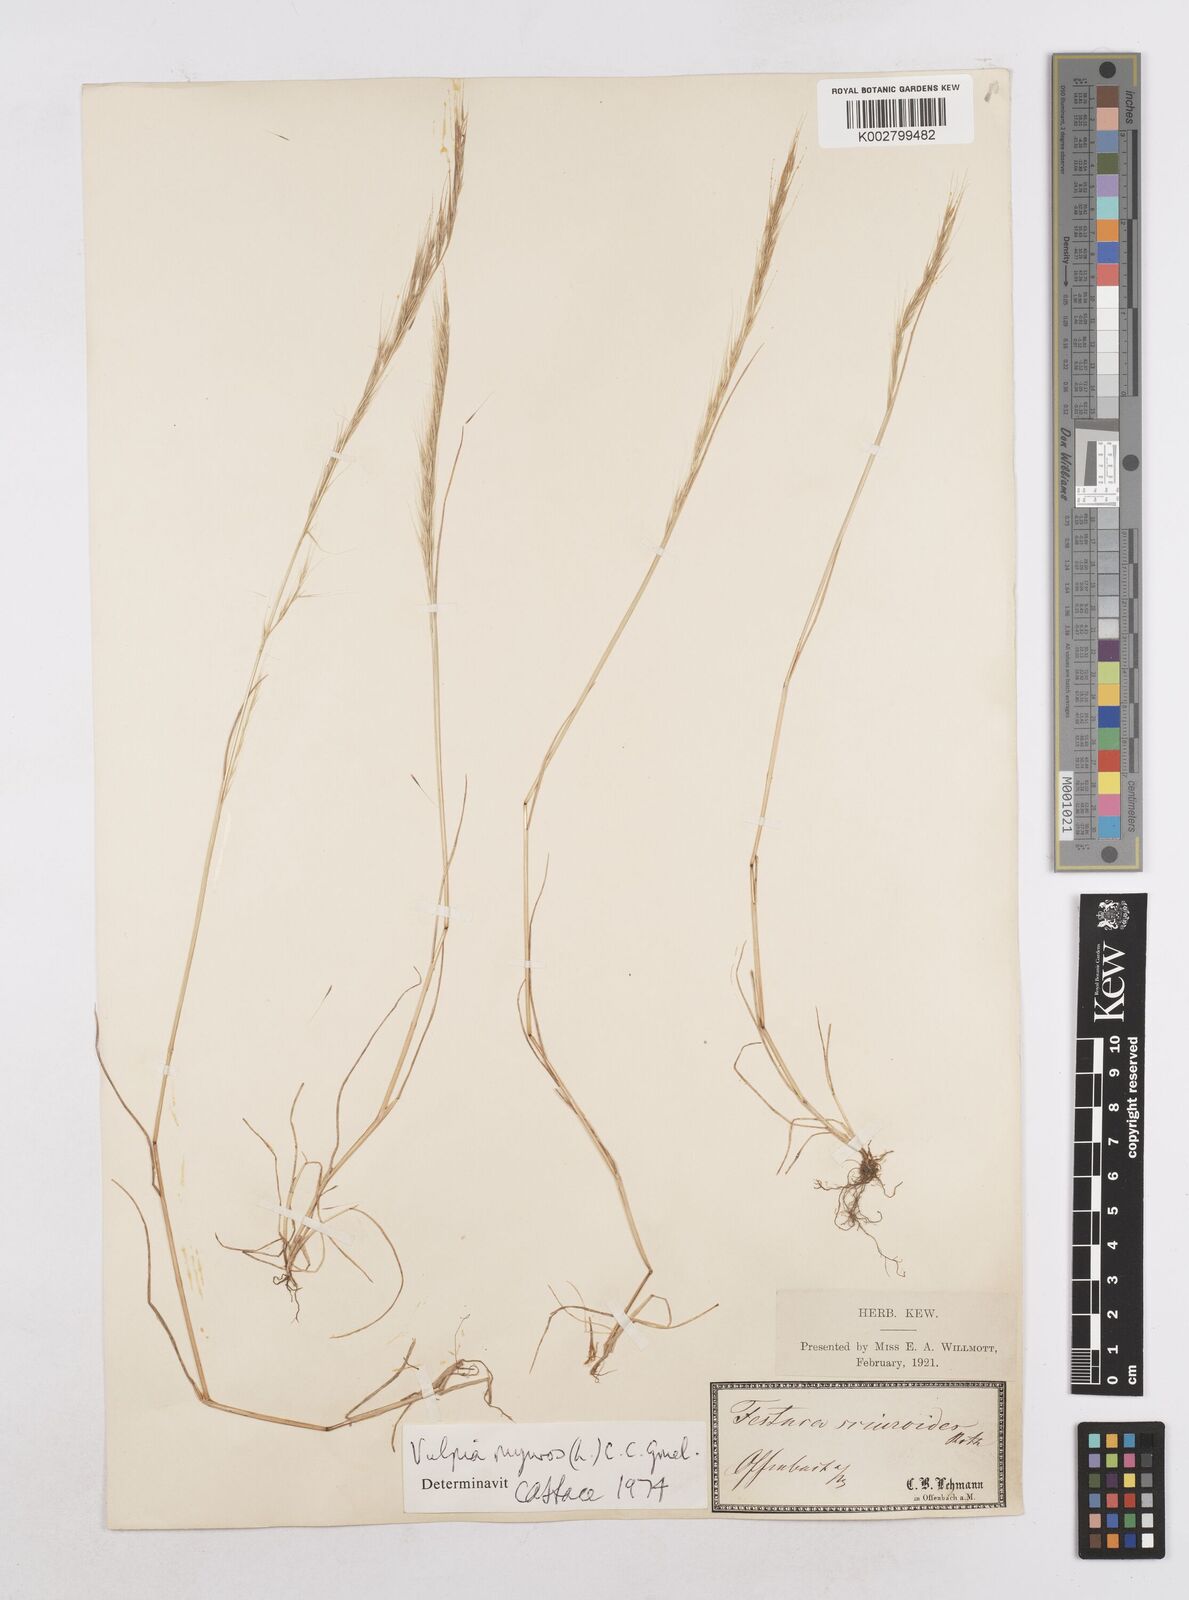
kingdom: Plantae
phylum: Tracheophyta
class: Liliopsida
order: Poales
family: Poaceae
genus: Festuca
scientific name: Festuca myuros
